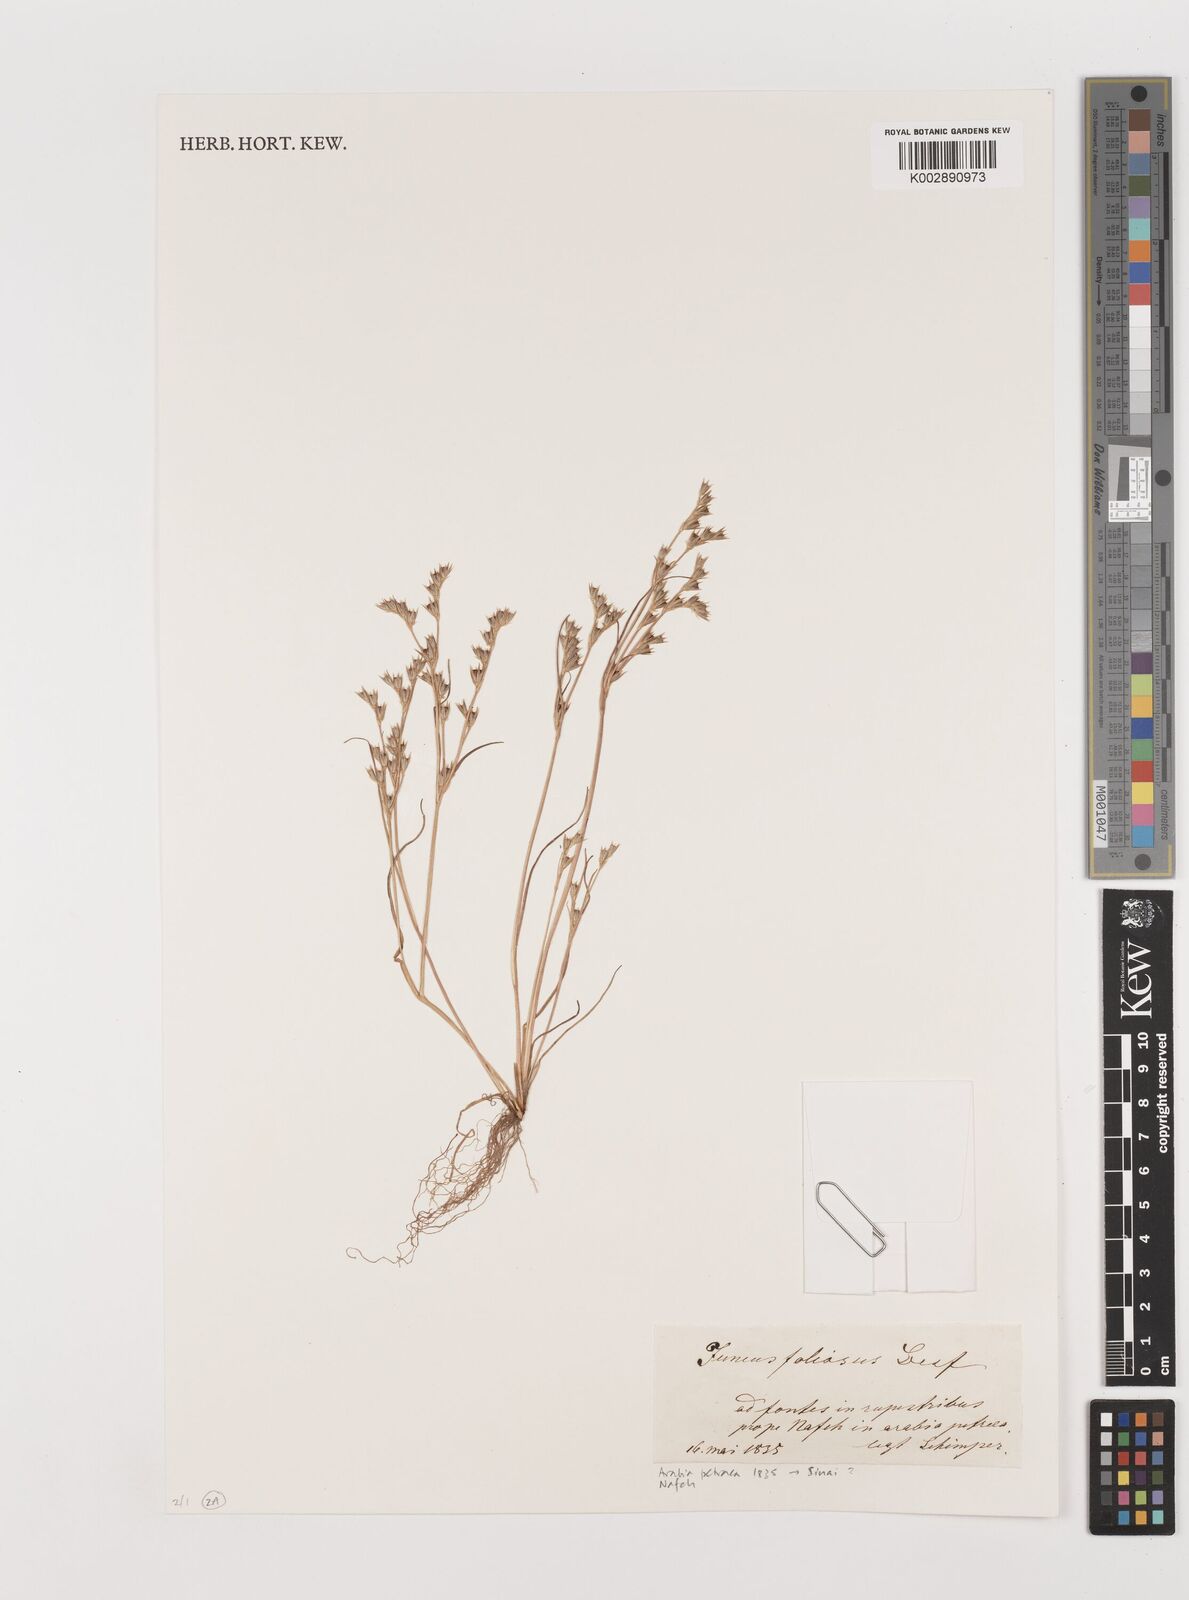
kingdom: Plantae
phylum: Tracheophyta
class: Liliopsida
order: Poales
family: Juncaceae
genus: Juncus
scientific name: Juncus foliosus
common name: Leafy rush
